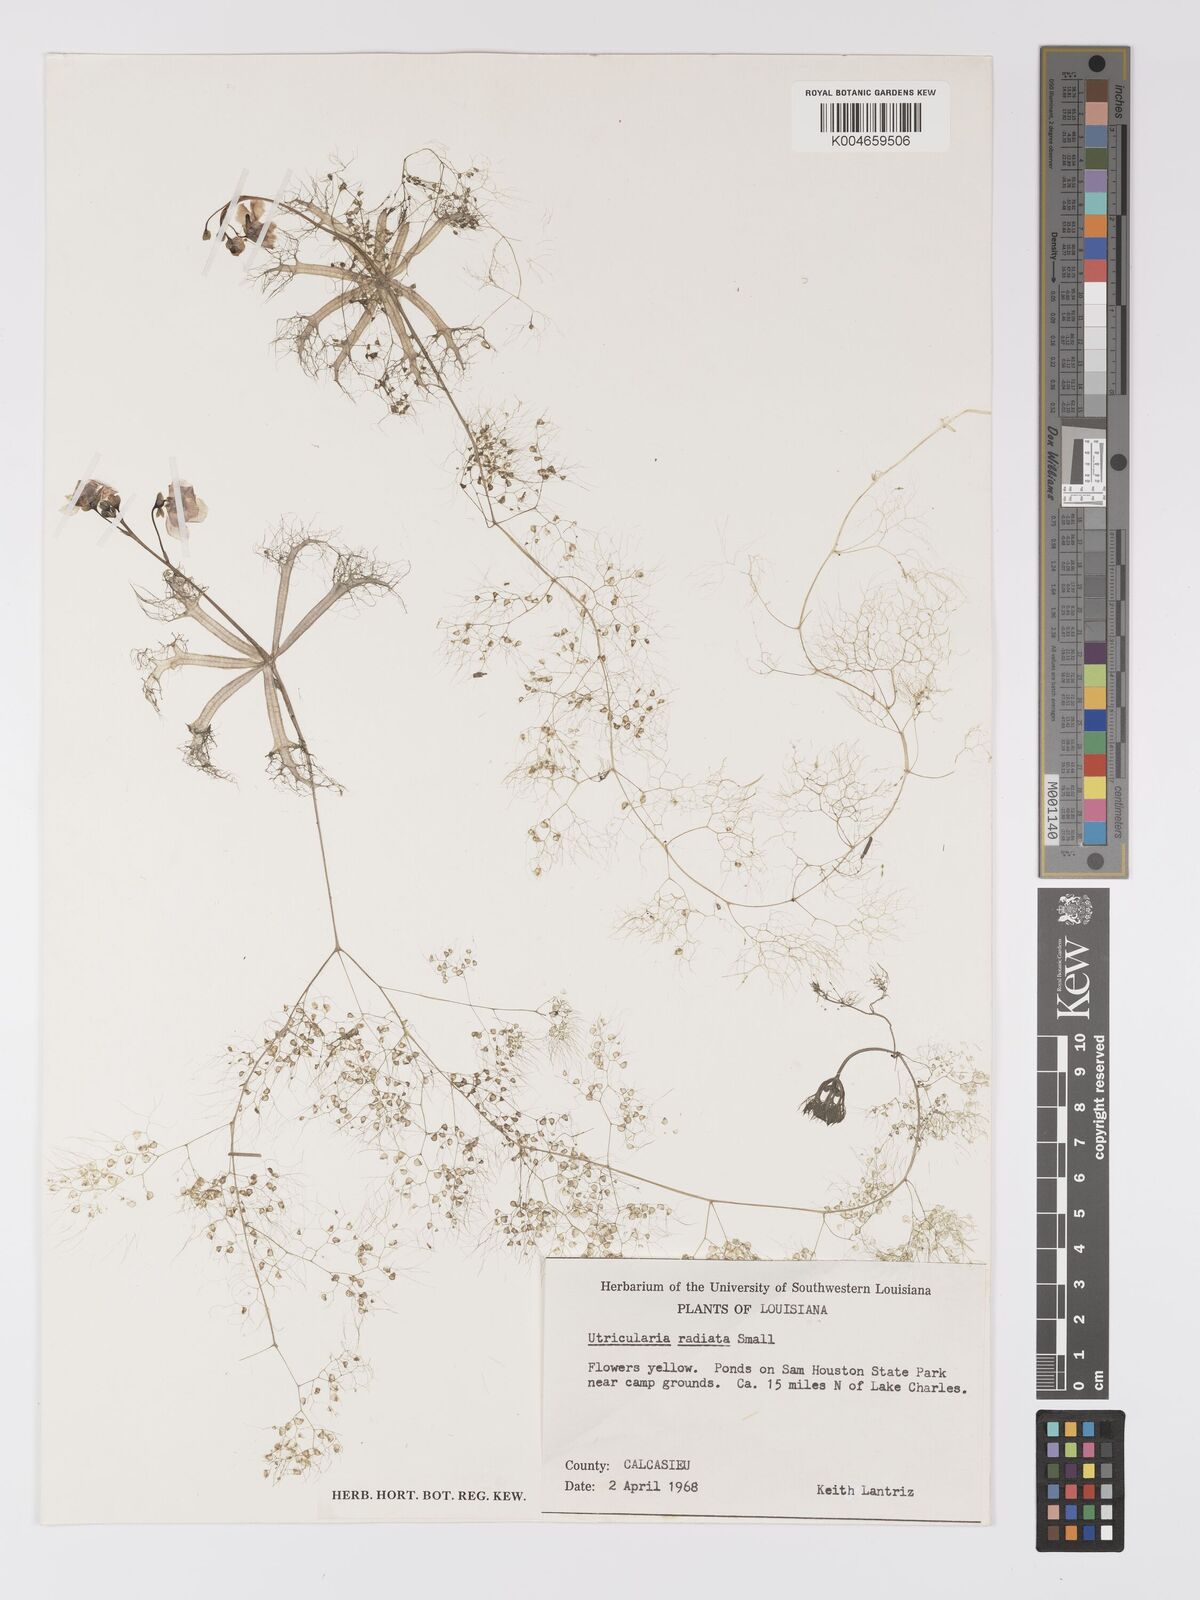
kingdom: Plantae
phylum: Tracheophyta
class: Magnoliopsida
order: Lamiales
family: Lentibulariaceae
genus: Utricularia
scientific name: Utricularia radiata
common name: Floating bladderwort
